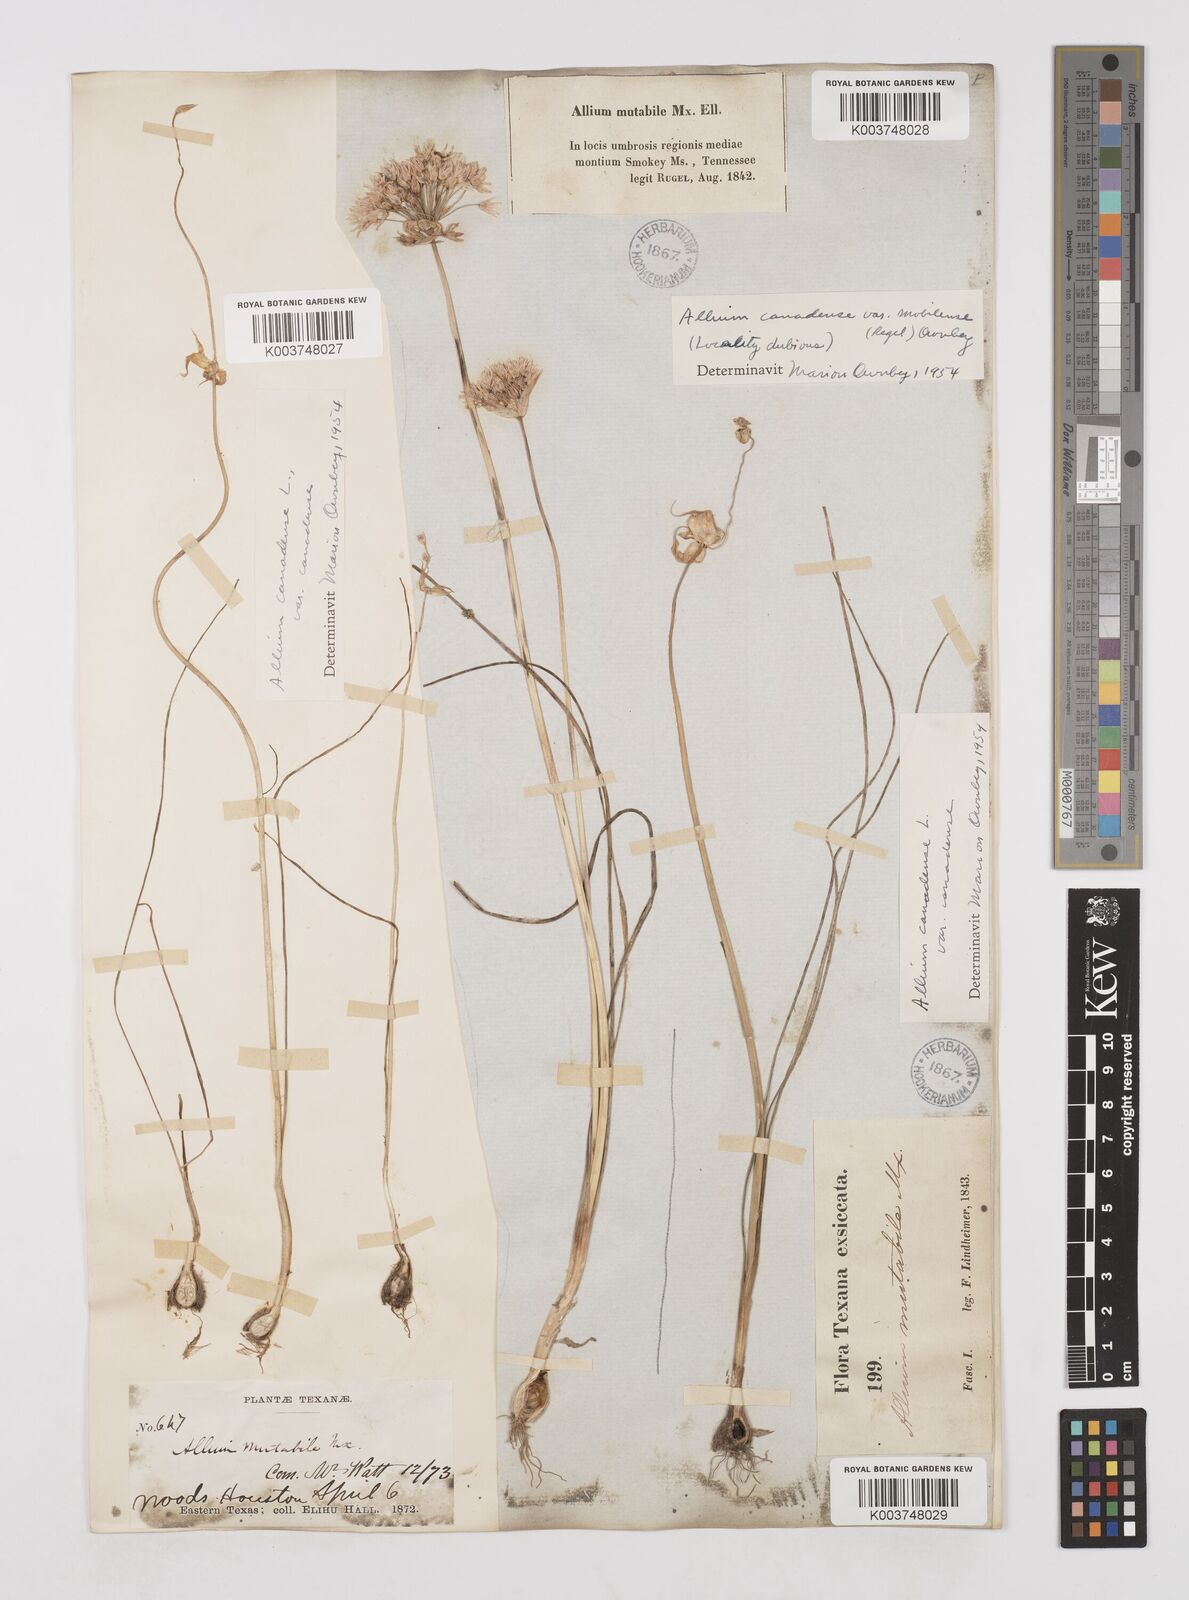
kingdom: Plantae
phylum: Tracheophyta
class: Liliopsida
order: Asparagales
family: Amaryllidaceae
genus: Allium
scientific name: Allium canadense
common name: Meadow garlic
